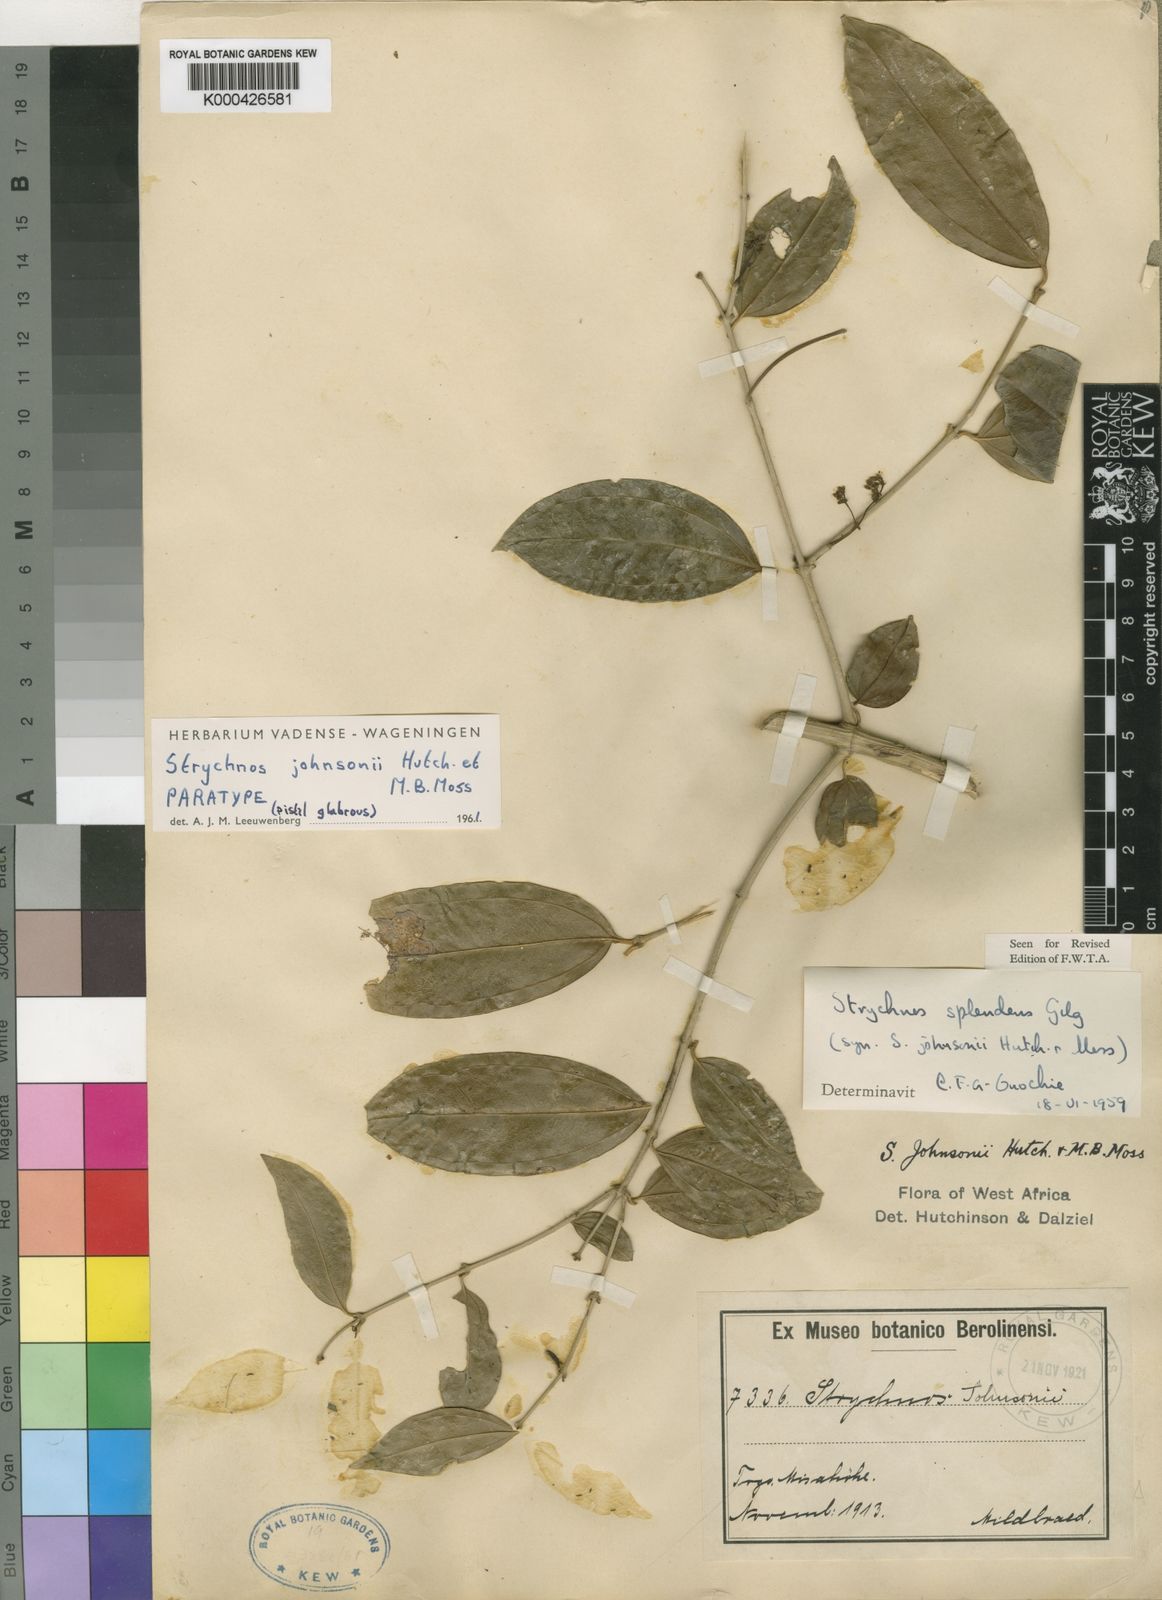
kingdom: Plantae
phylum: Tracheophyta
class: Magnoliopsida
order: Gentianales
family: Loganiaceae
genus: Strychnos
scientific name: Strychnos johnsonii
